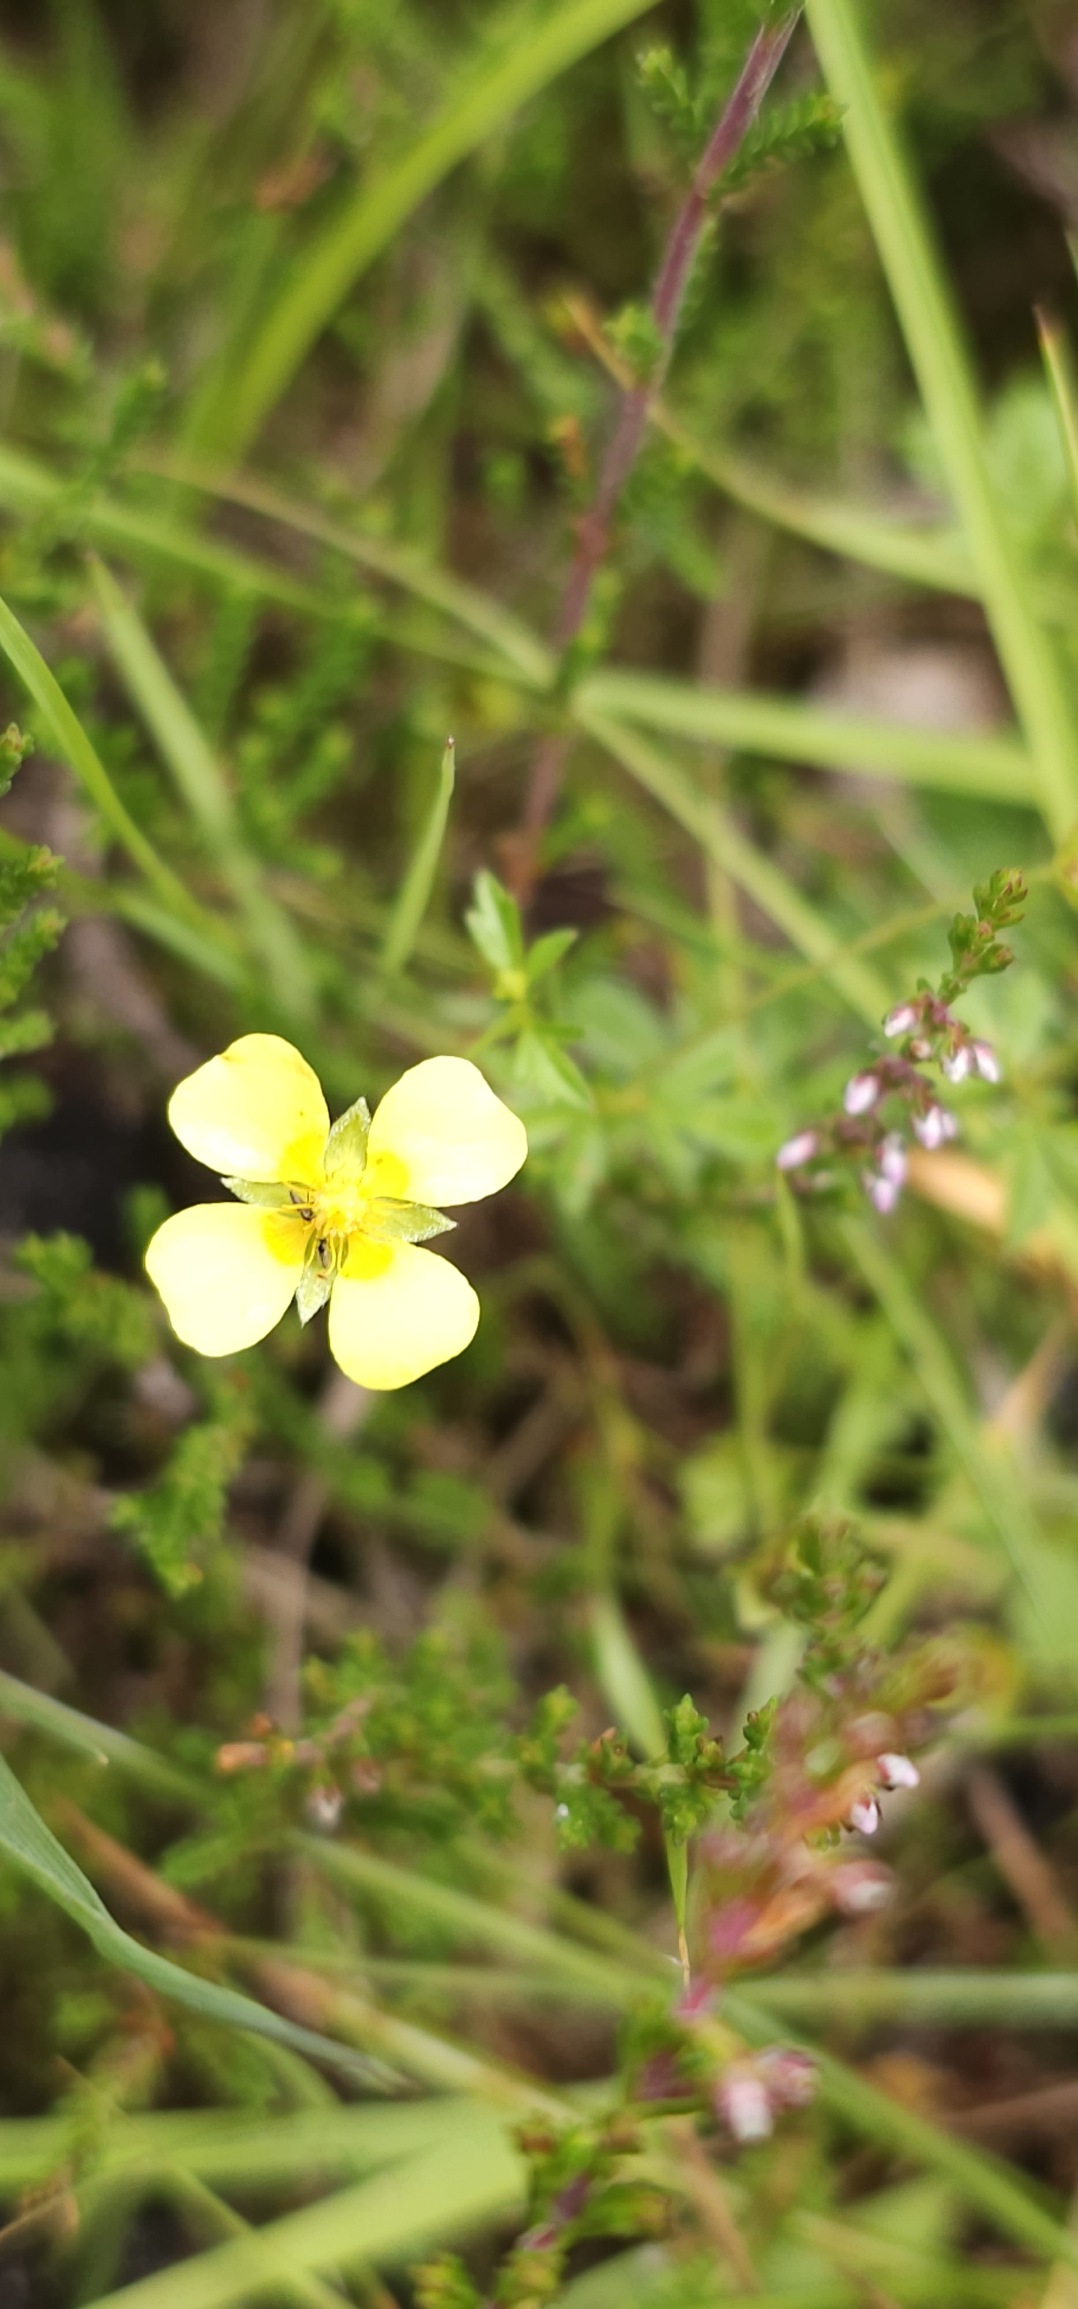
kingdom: Plantae
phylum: Tracheophyta
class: Magnoliopsida
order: Rosales
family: Rosaceae
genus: Potentilla
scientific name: Potentilla erecta
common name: Tormentil
